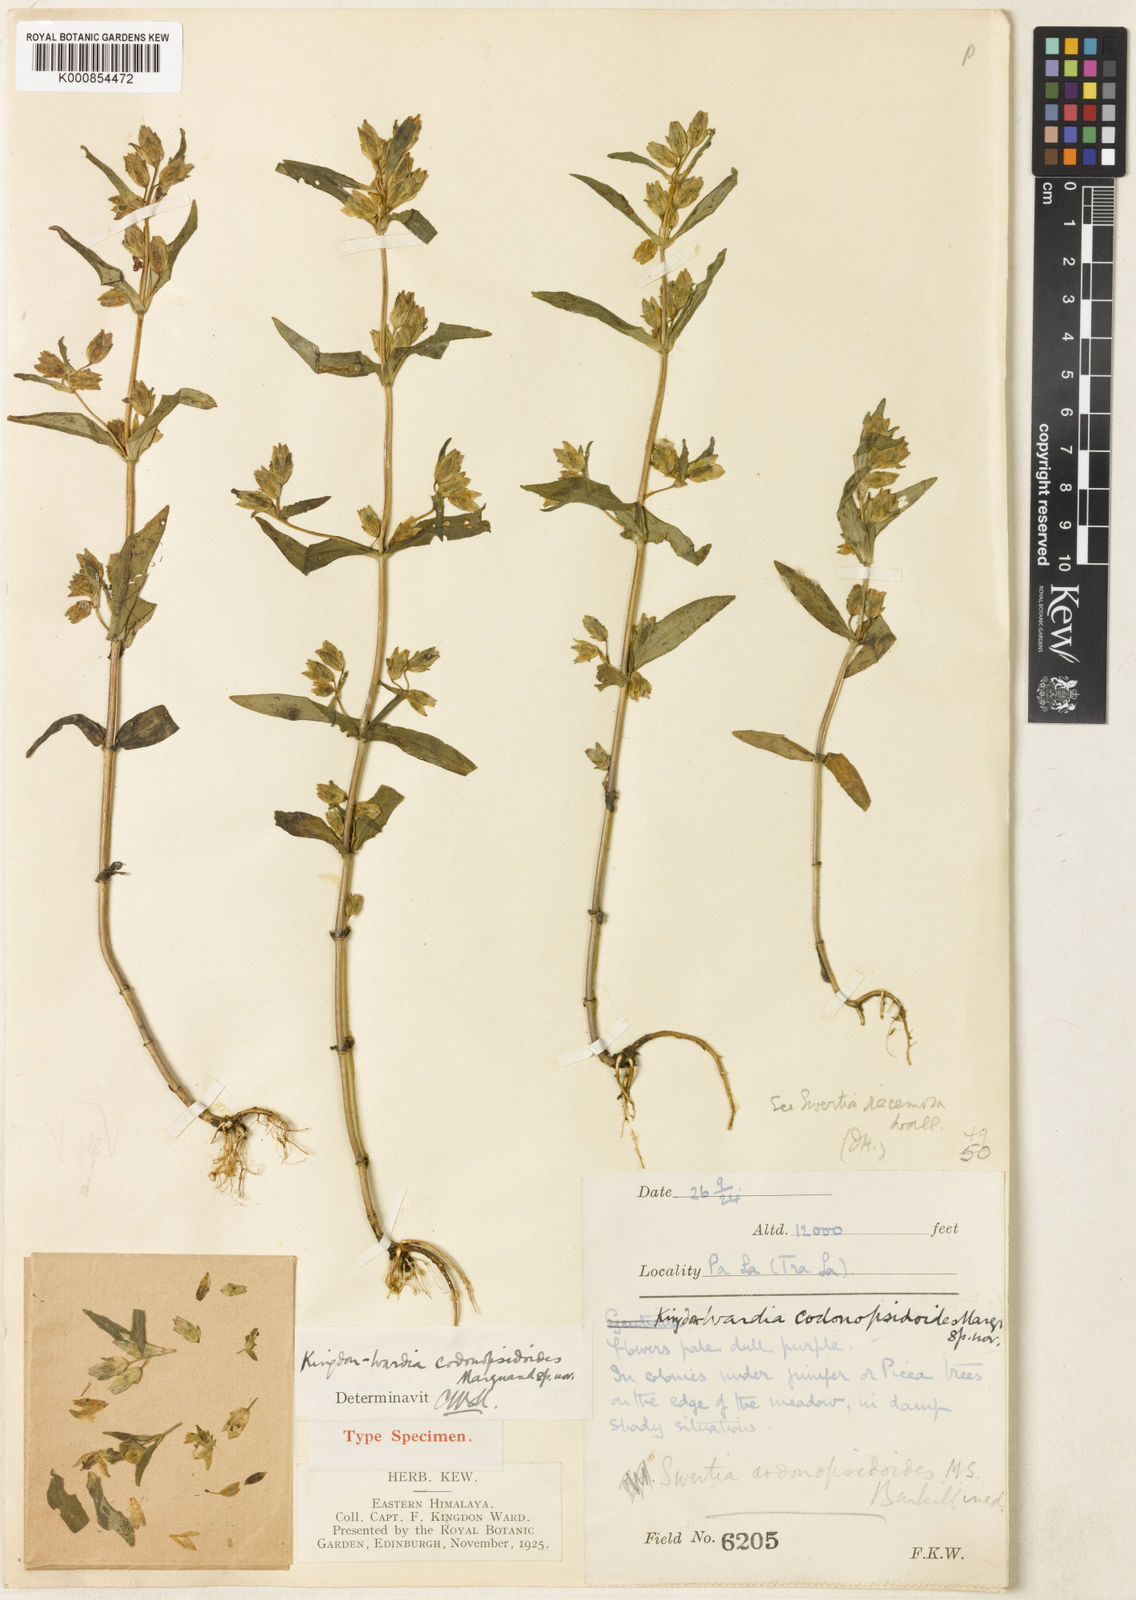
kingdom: Plantae
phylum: Tracheophyta
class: Magnoliopsida
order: Gentianales
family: Gentianaceae
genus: Swertia
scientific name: Swertia purpurascens
